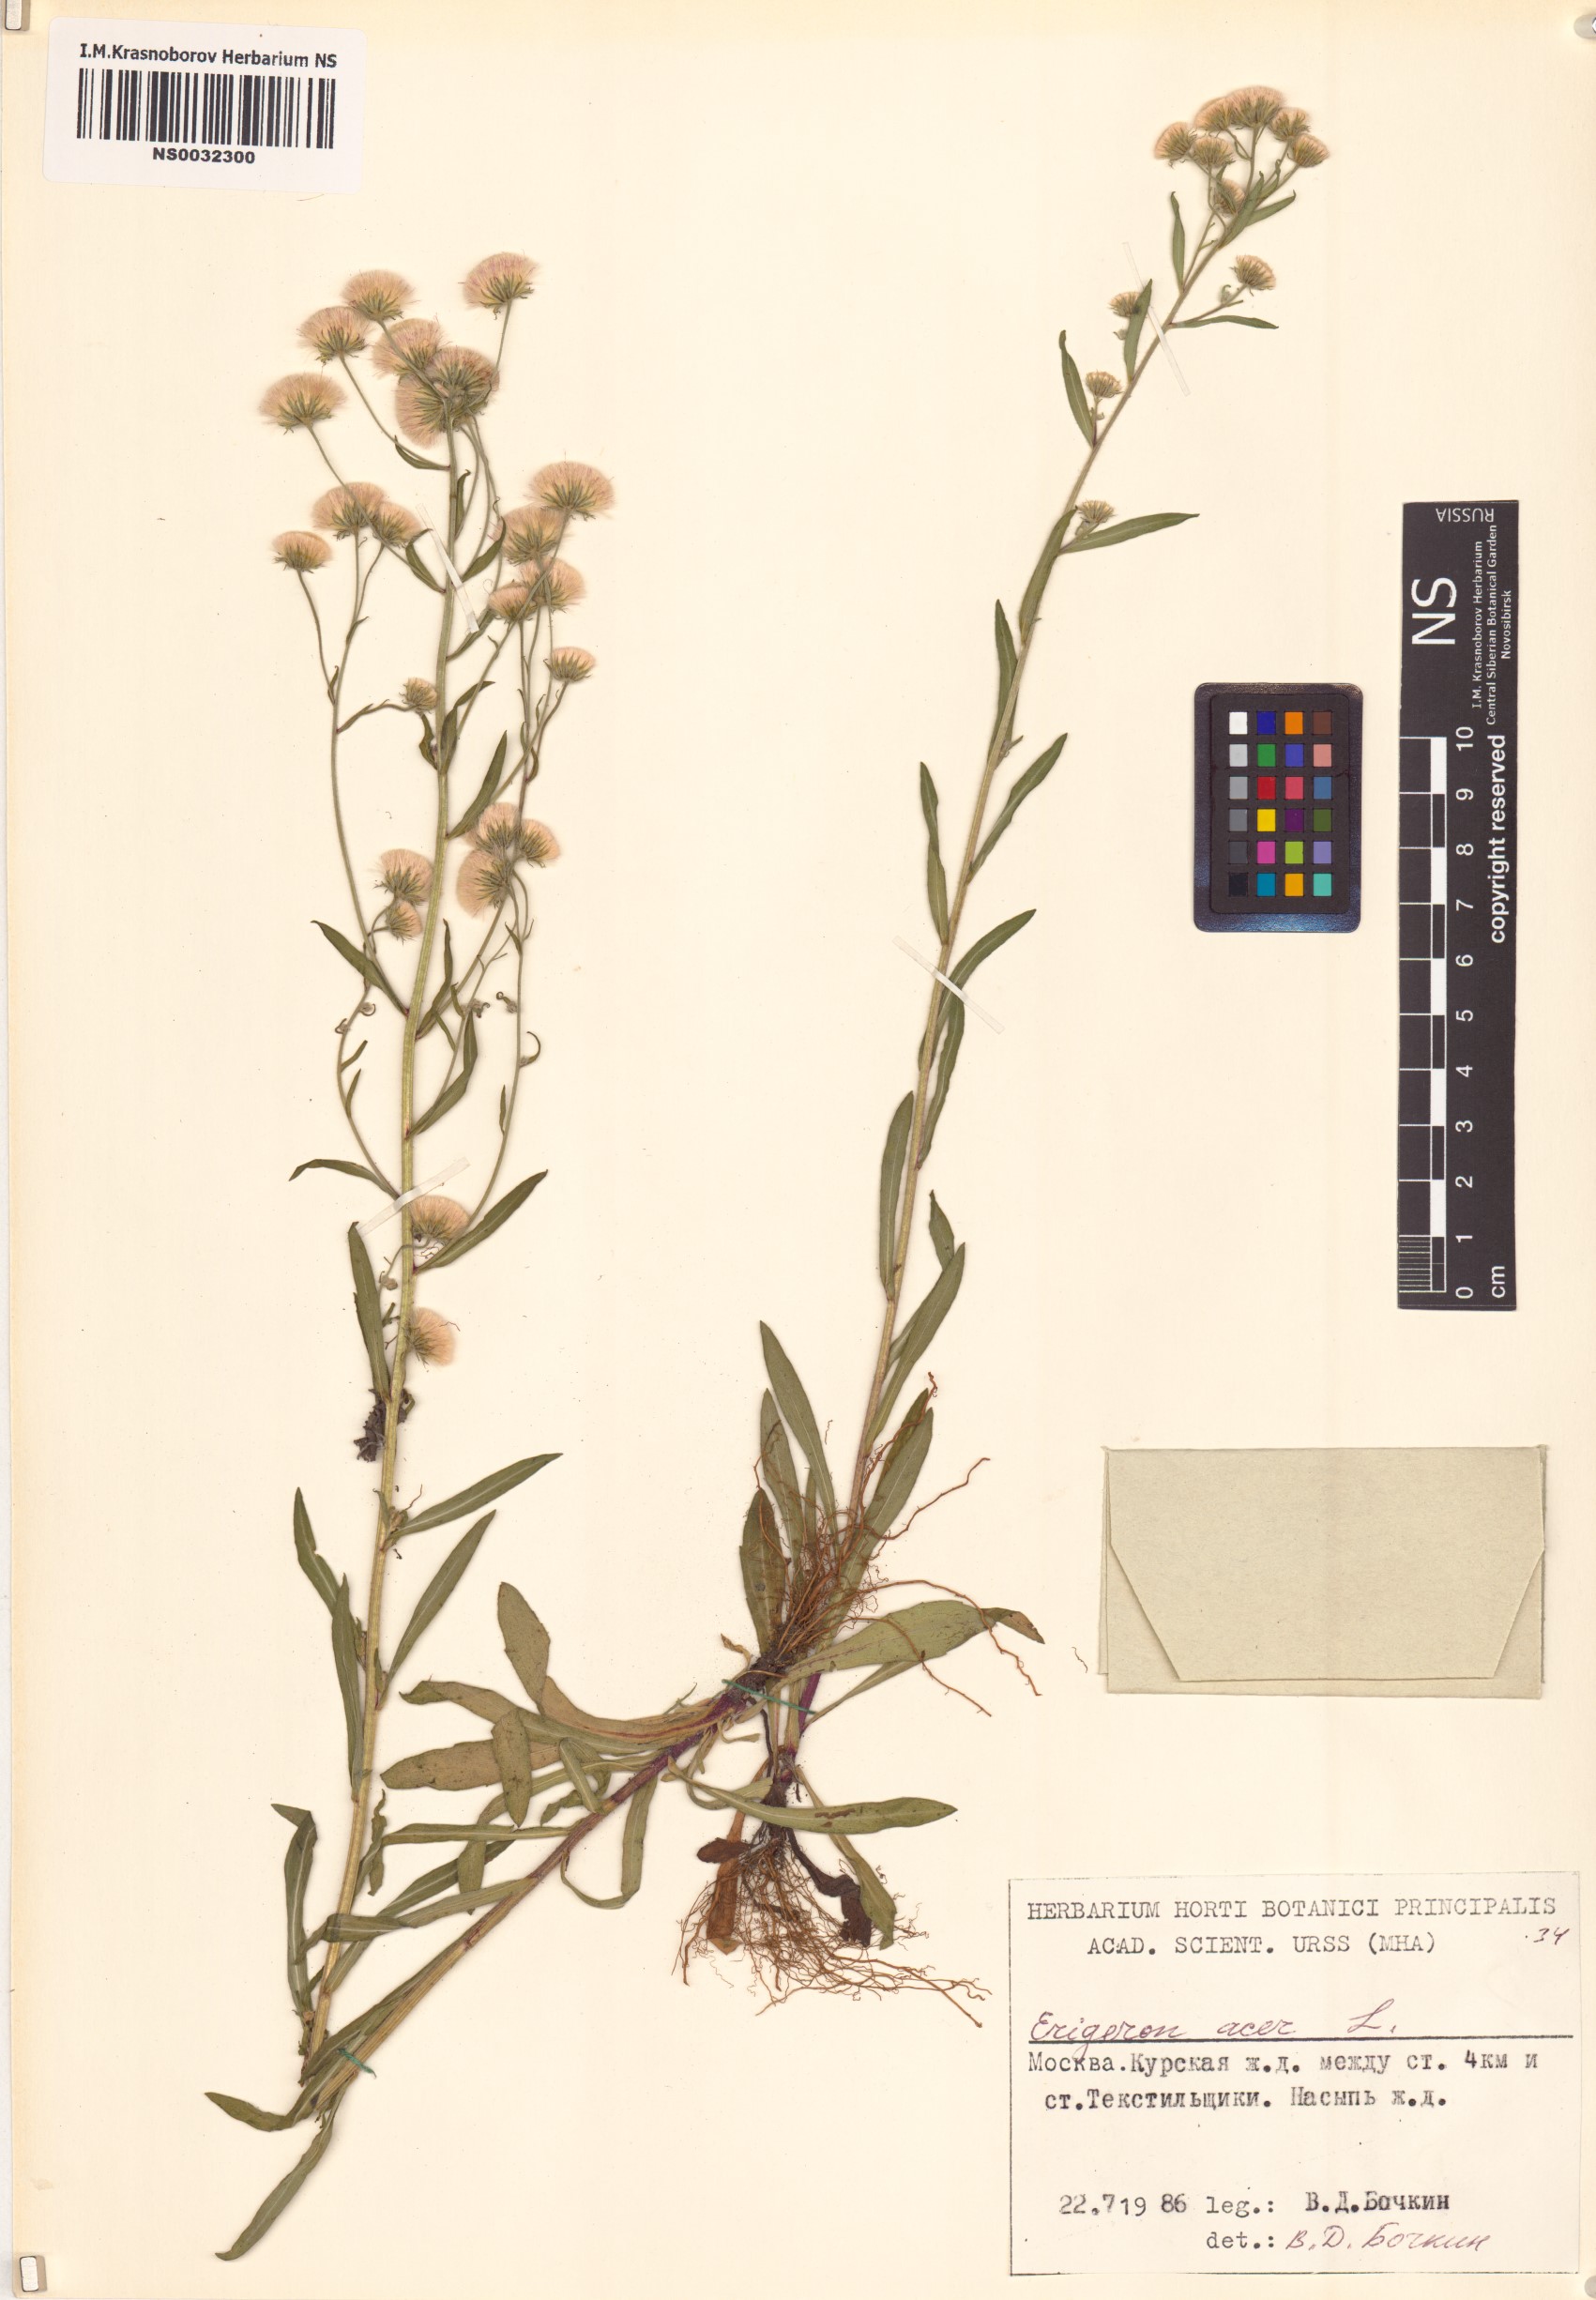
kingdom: Plantae
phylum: Tracheophyta
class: Magnoliopsida
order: Asterales
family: Asteraceae
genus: Erigeron
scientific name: Erigeron acris
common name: Blue fleabane
